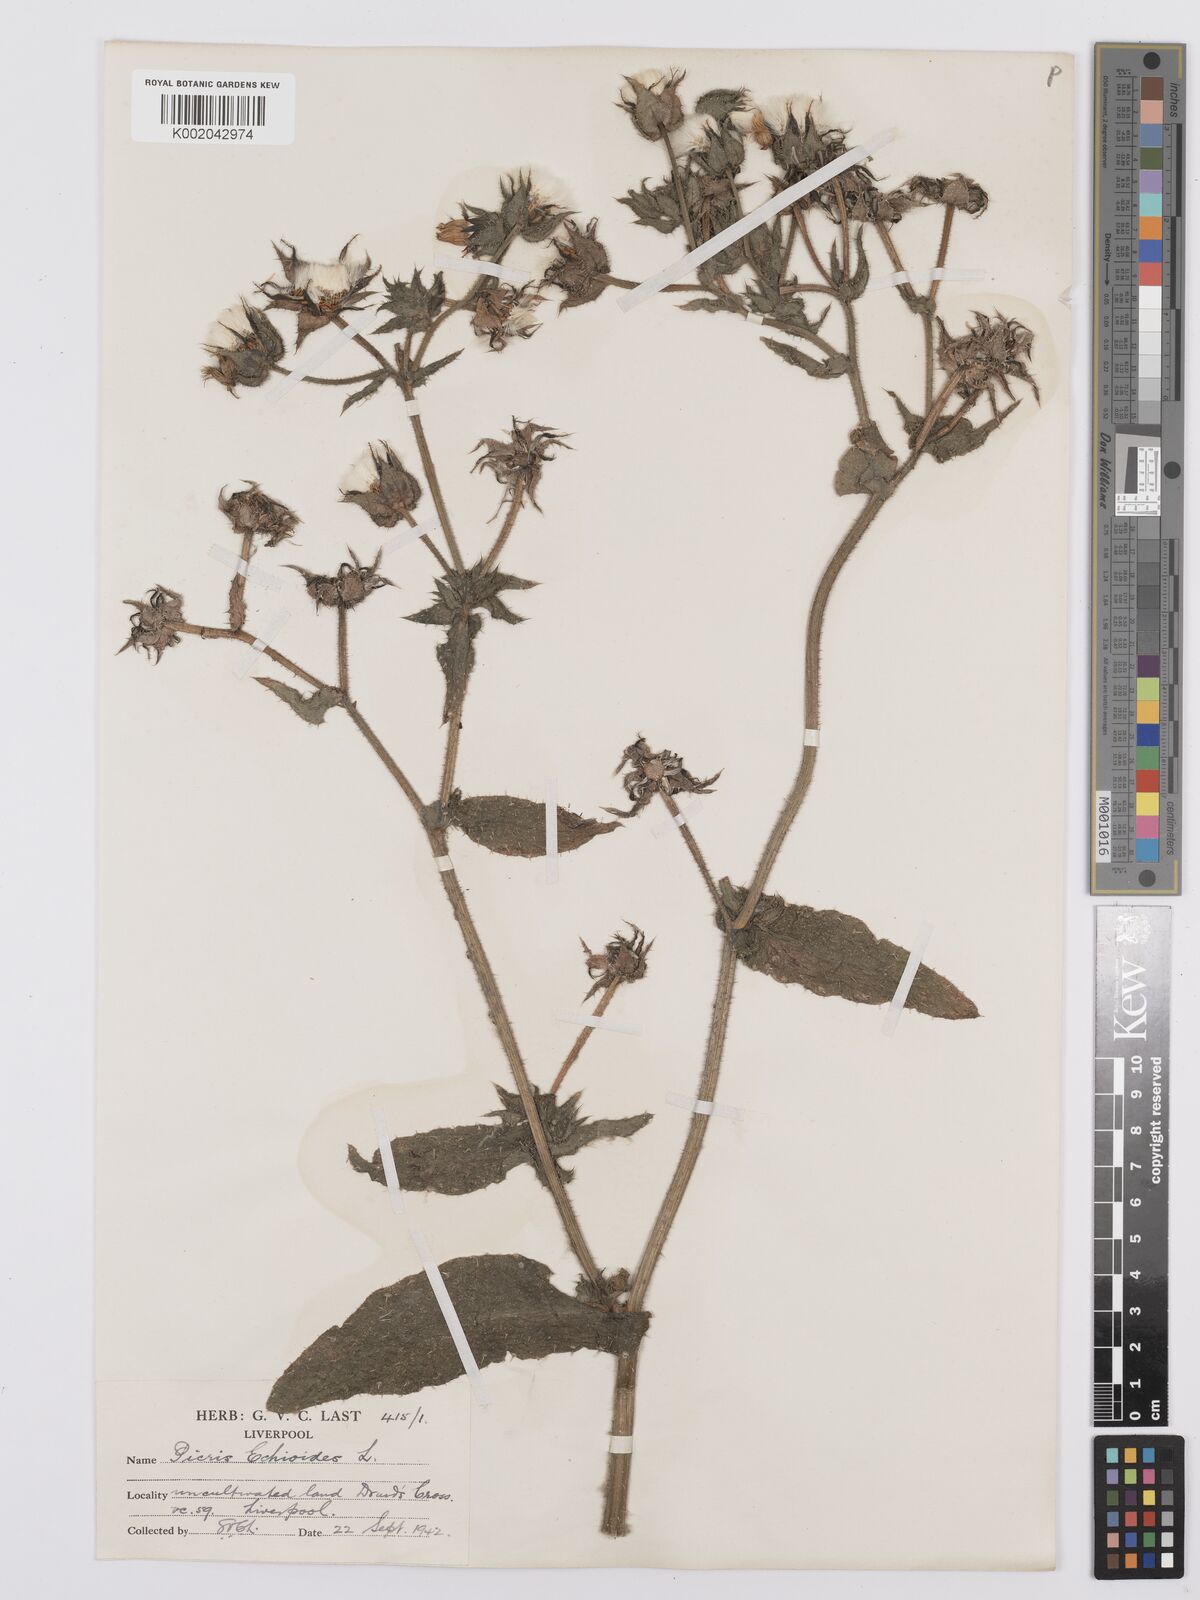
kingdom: Plantae
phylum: Tracheophyta
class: Magnoliopsida
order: Asterales
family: Asteraceae
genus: Helminthotheca
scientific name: Helminthotheca echioides
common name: Ox-tongue
